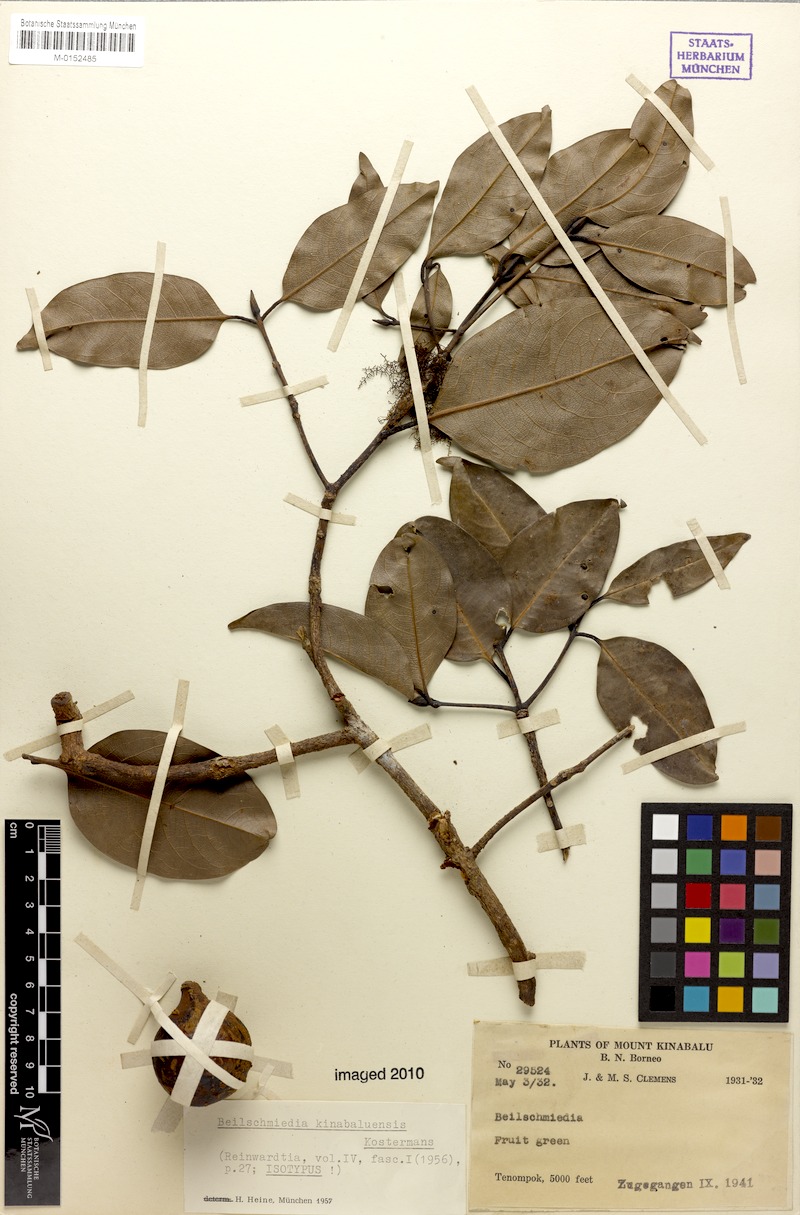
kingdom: Plantae
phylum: Tracheophyta
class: Magnoliopsida
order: Laurales
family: Lauraceae
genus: Beilschmiedia
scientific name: Beilschmiedia kinabaluensis
